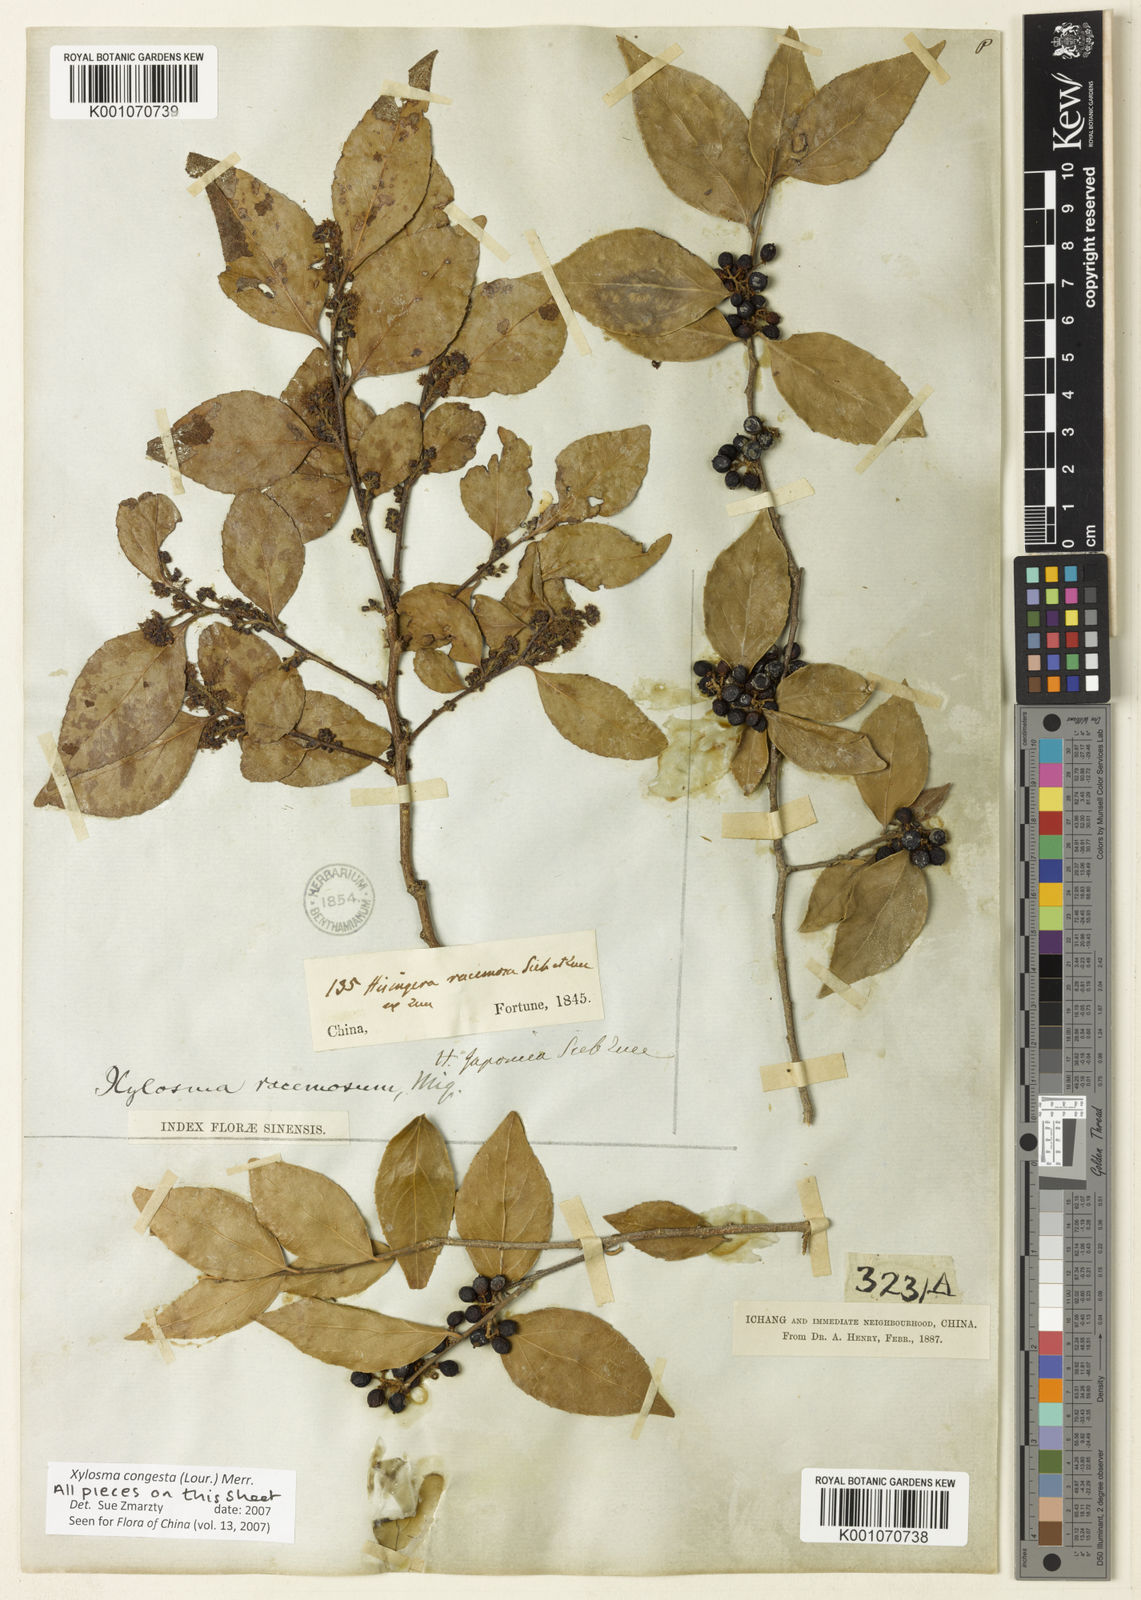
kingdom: Plantae
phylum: Tracheophyta
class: Magnoliopsida
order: Malpighiales
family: Salicaceae
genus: Xylosma
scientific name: Xylosma racemosum
